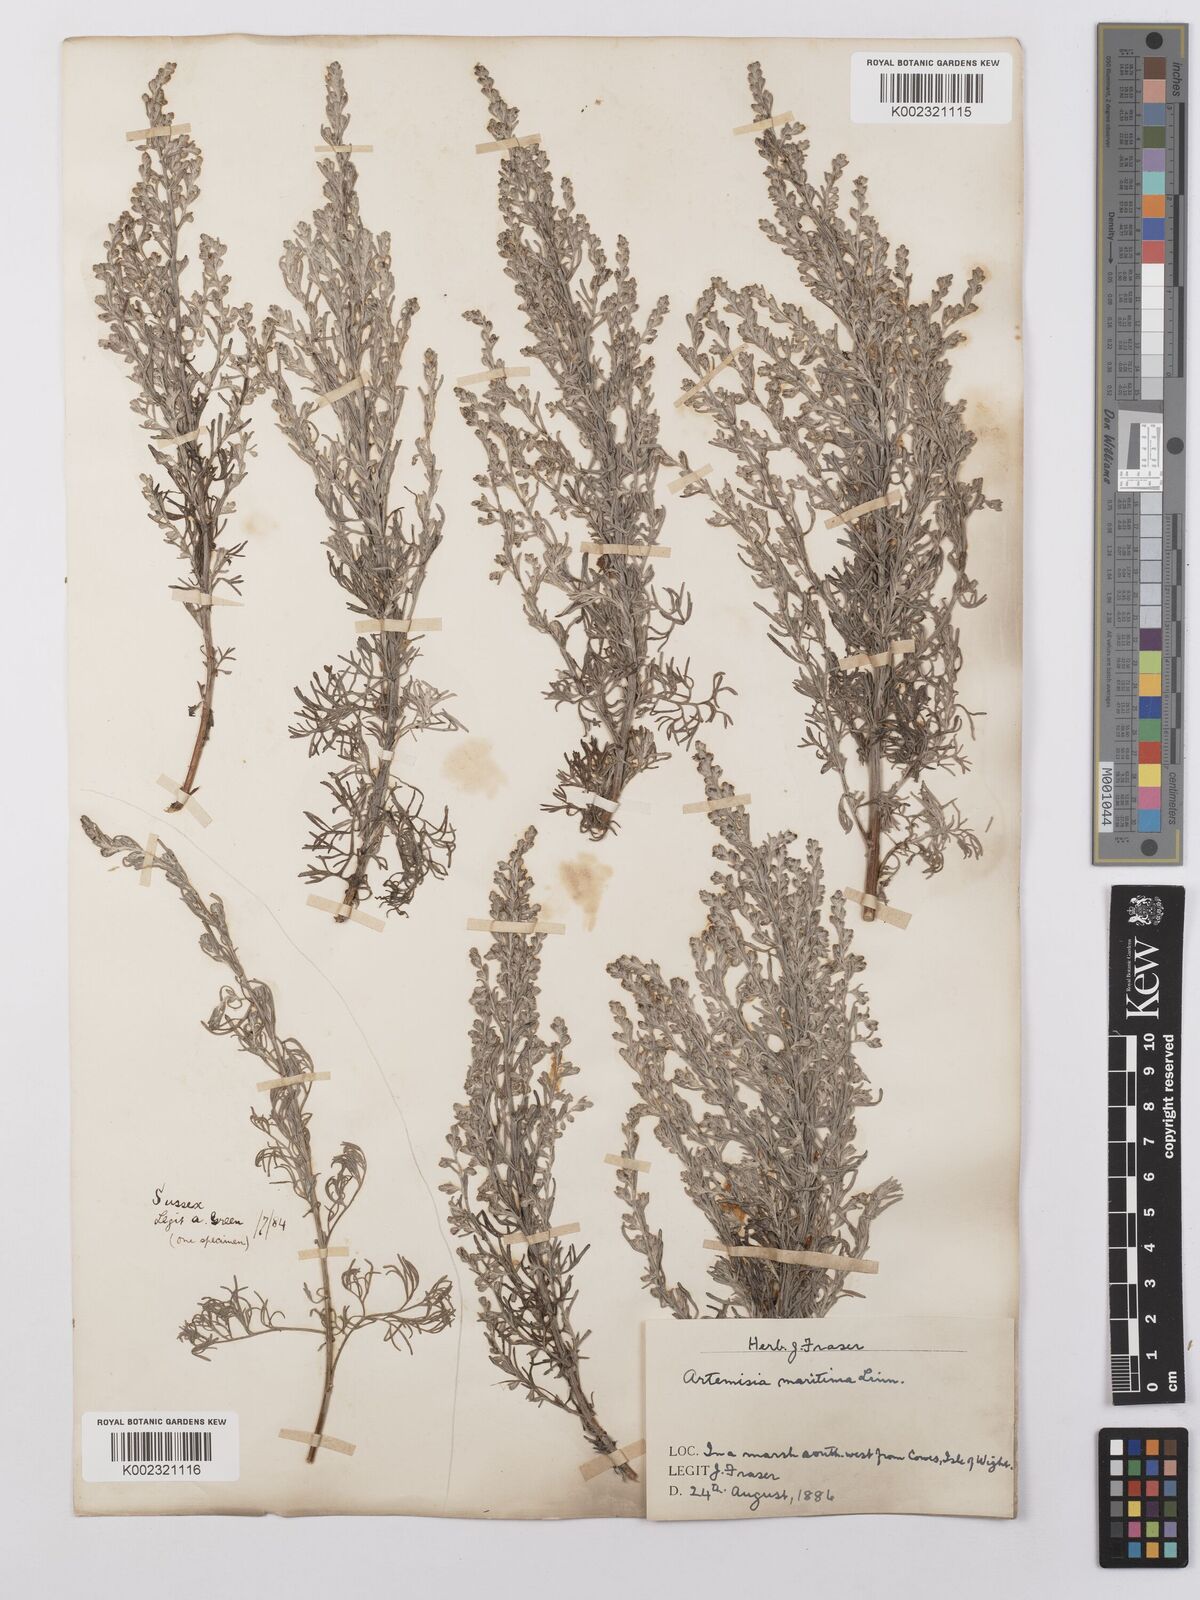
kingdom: Plantae
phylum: Tracheophyta
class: Magnoliopsida
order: Asterales
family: Asteraceae
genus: Artemisia
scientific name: Artemisia maritima
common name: Wormseed
